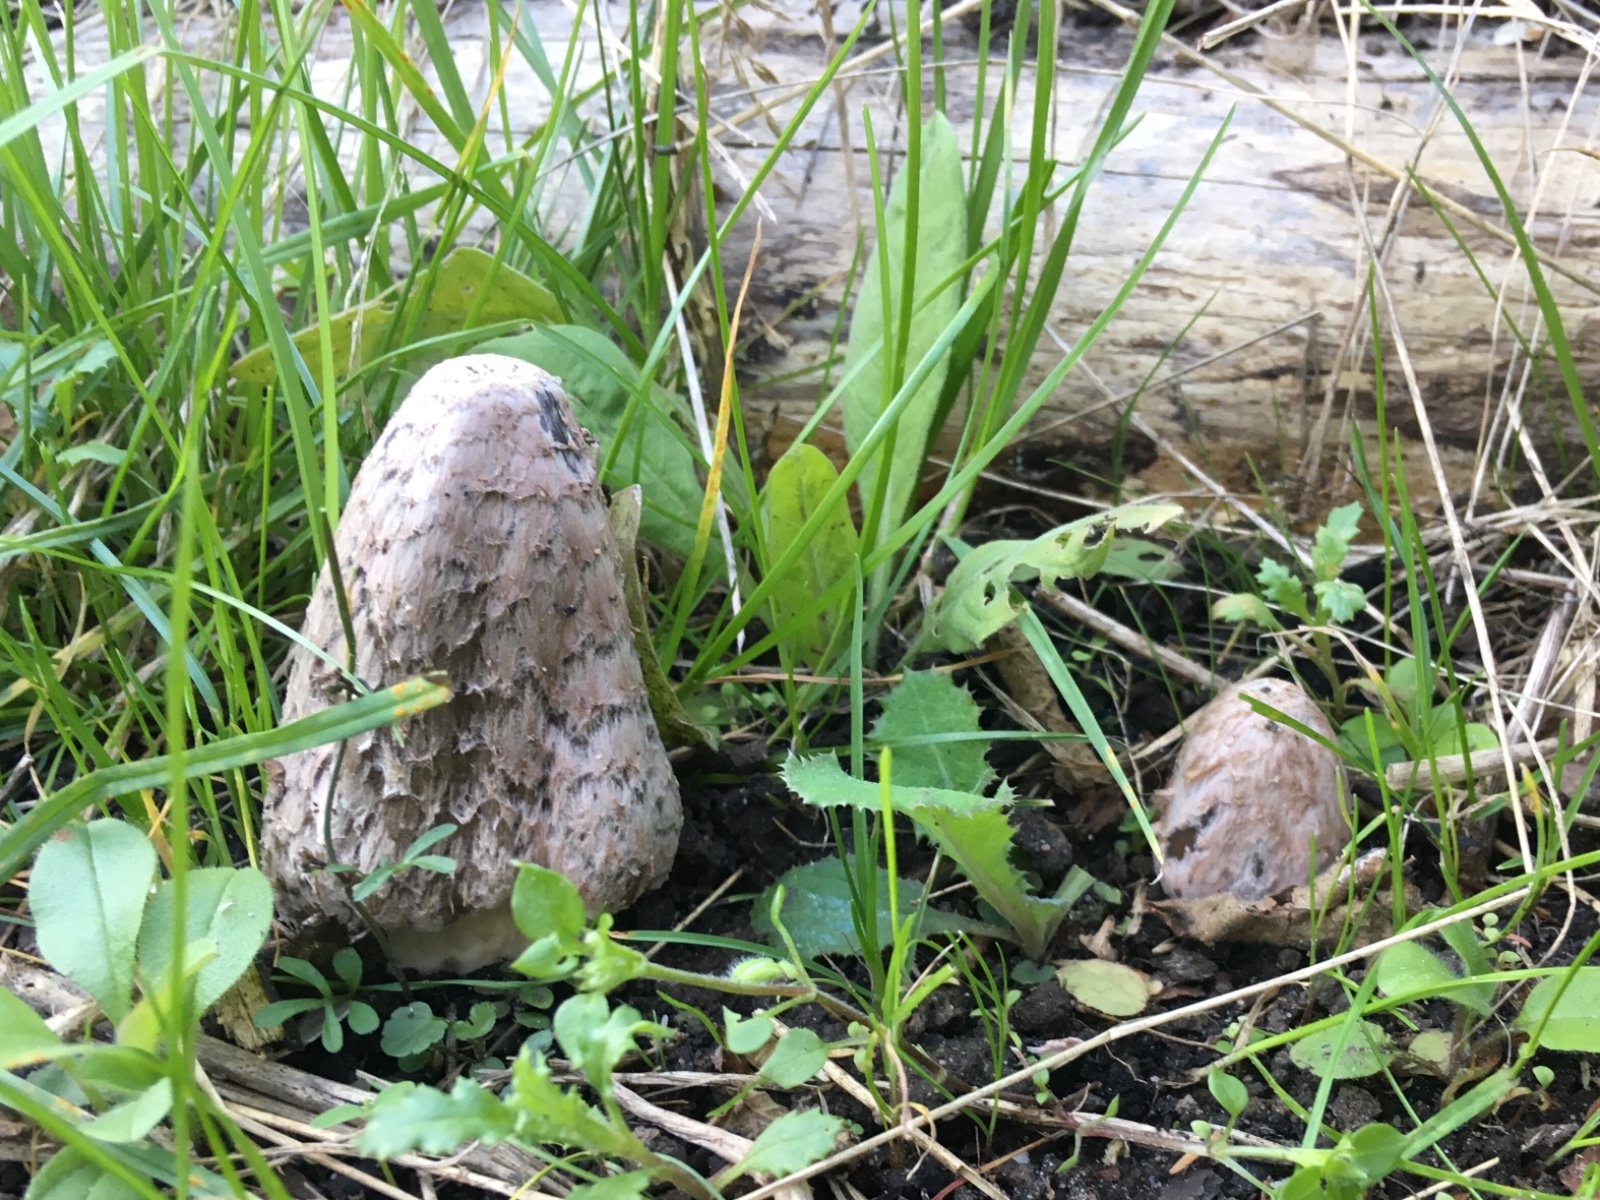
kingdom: Fungi
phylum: Basidiomycota
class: Agaricomycetes
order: Agaricales
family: Agaricaceae
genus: Coprinus
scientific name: Coprinus comatus
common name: stor parykhat
